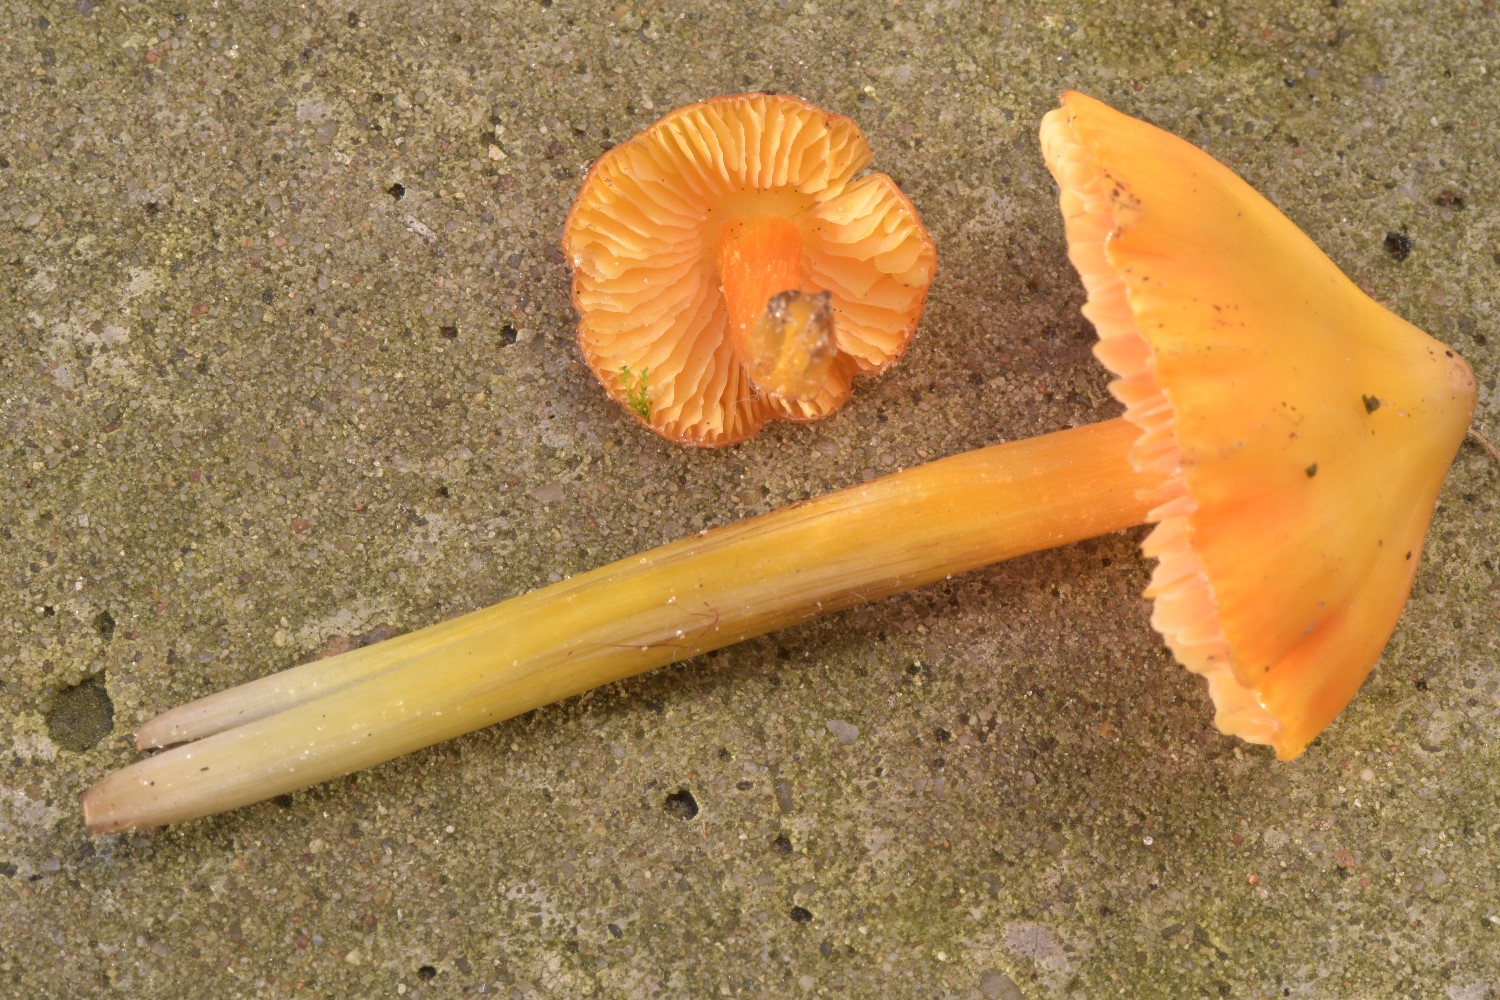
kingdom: Fungi
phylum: Basidiomycota
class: Agaricomycetes
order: Agaricales
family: Hygrophoraceae
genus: Hygrocybe
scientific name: Hygrocybe acutoconica
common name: spidspuklet vokshat
